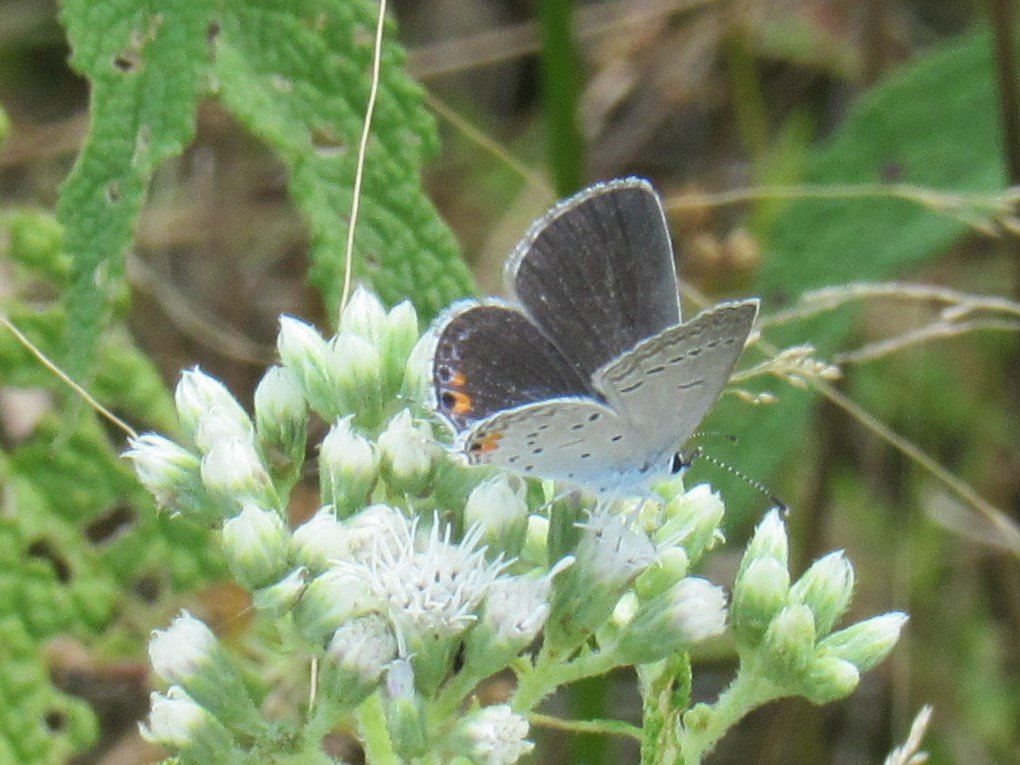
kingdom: Animalia
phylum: Arthropoda
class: Insecta
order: Lepidoptera
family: Lycaenidae
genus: Elkalyce
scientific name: Elkalyce comyntas
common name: Eastern Tailed-Blue
